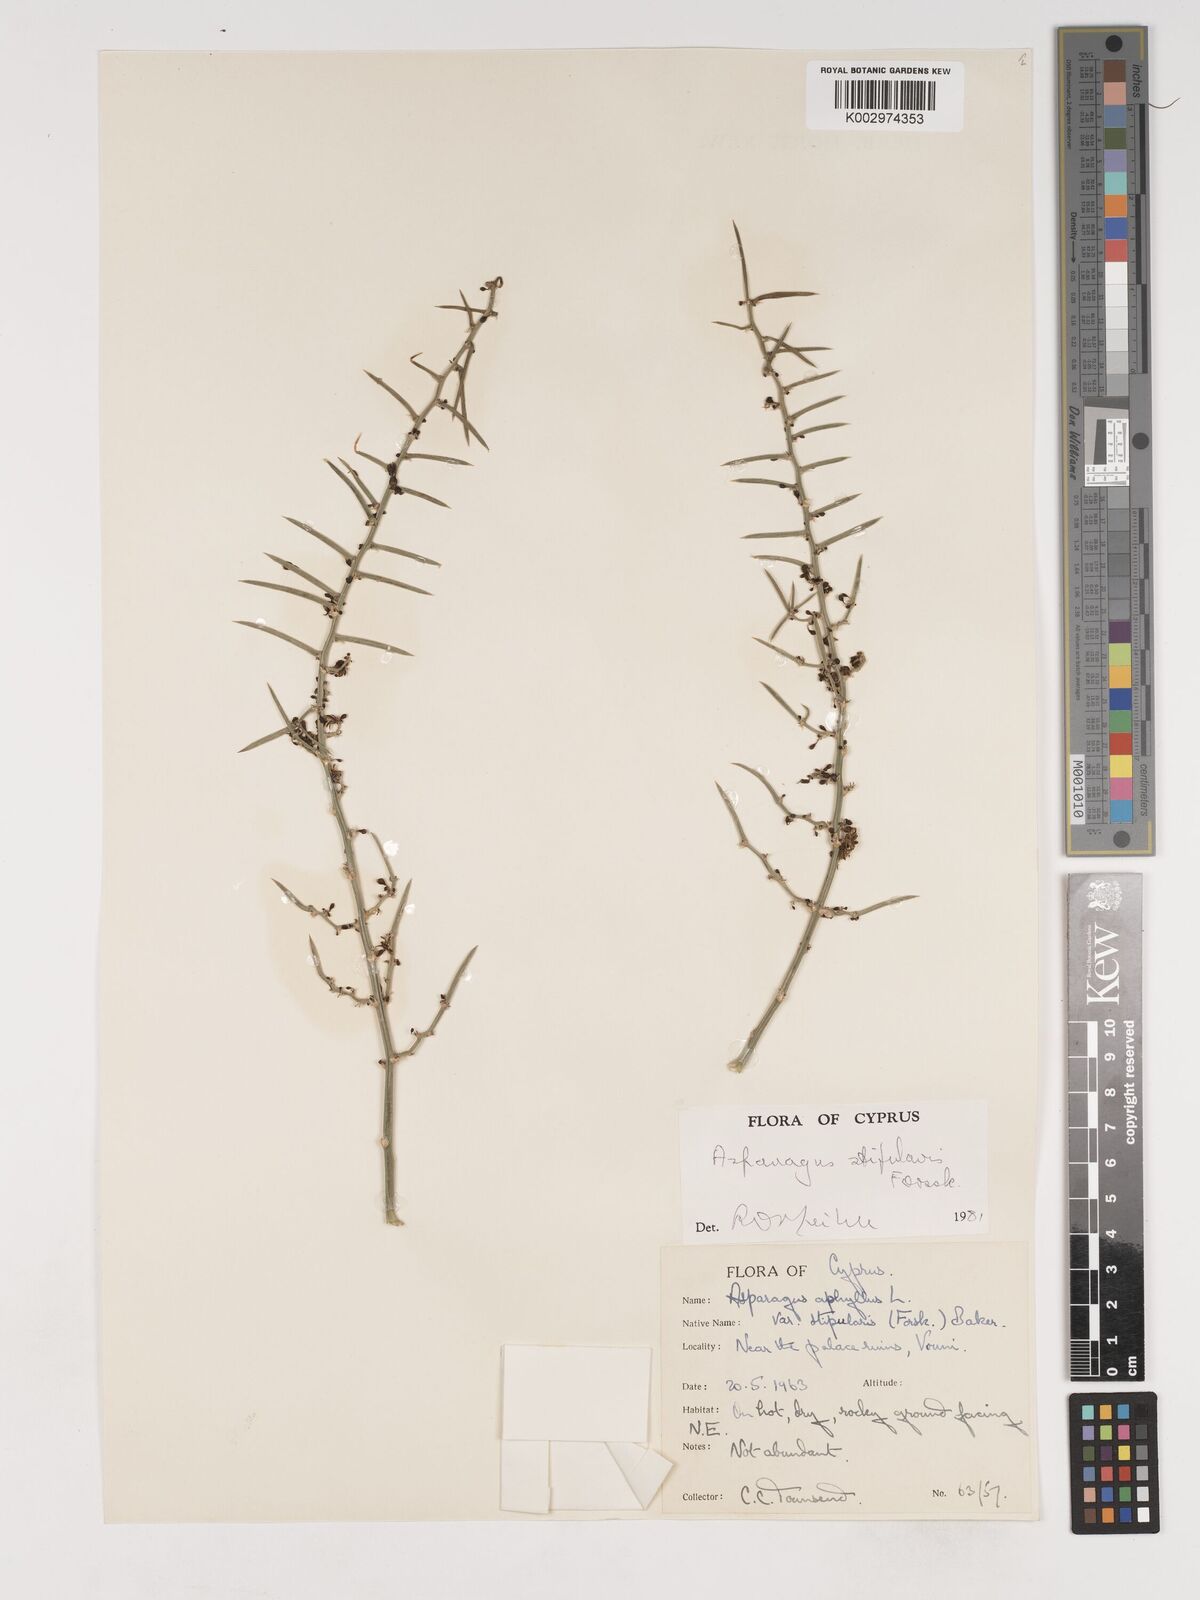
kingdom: Plantae
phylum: Tracheophyta
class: Liliopsida
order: Asparagales
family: Asparagaceae
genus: Asparagus
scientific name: Asparagus aphyllus
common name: Mediterranean asparagus
